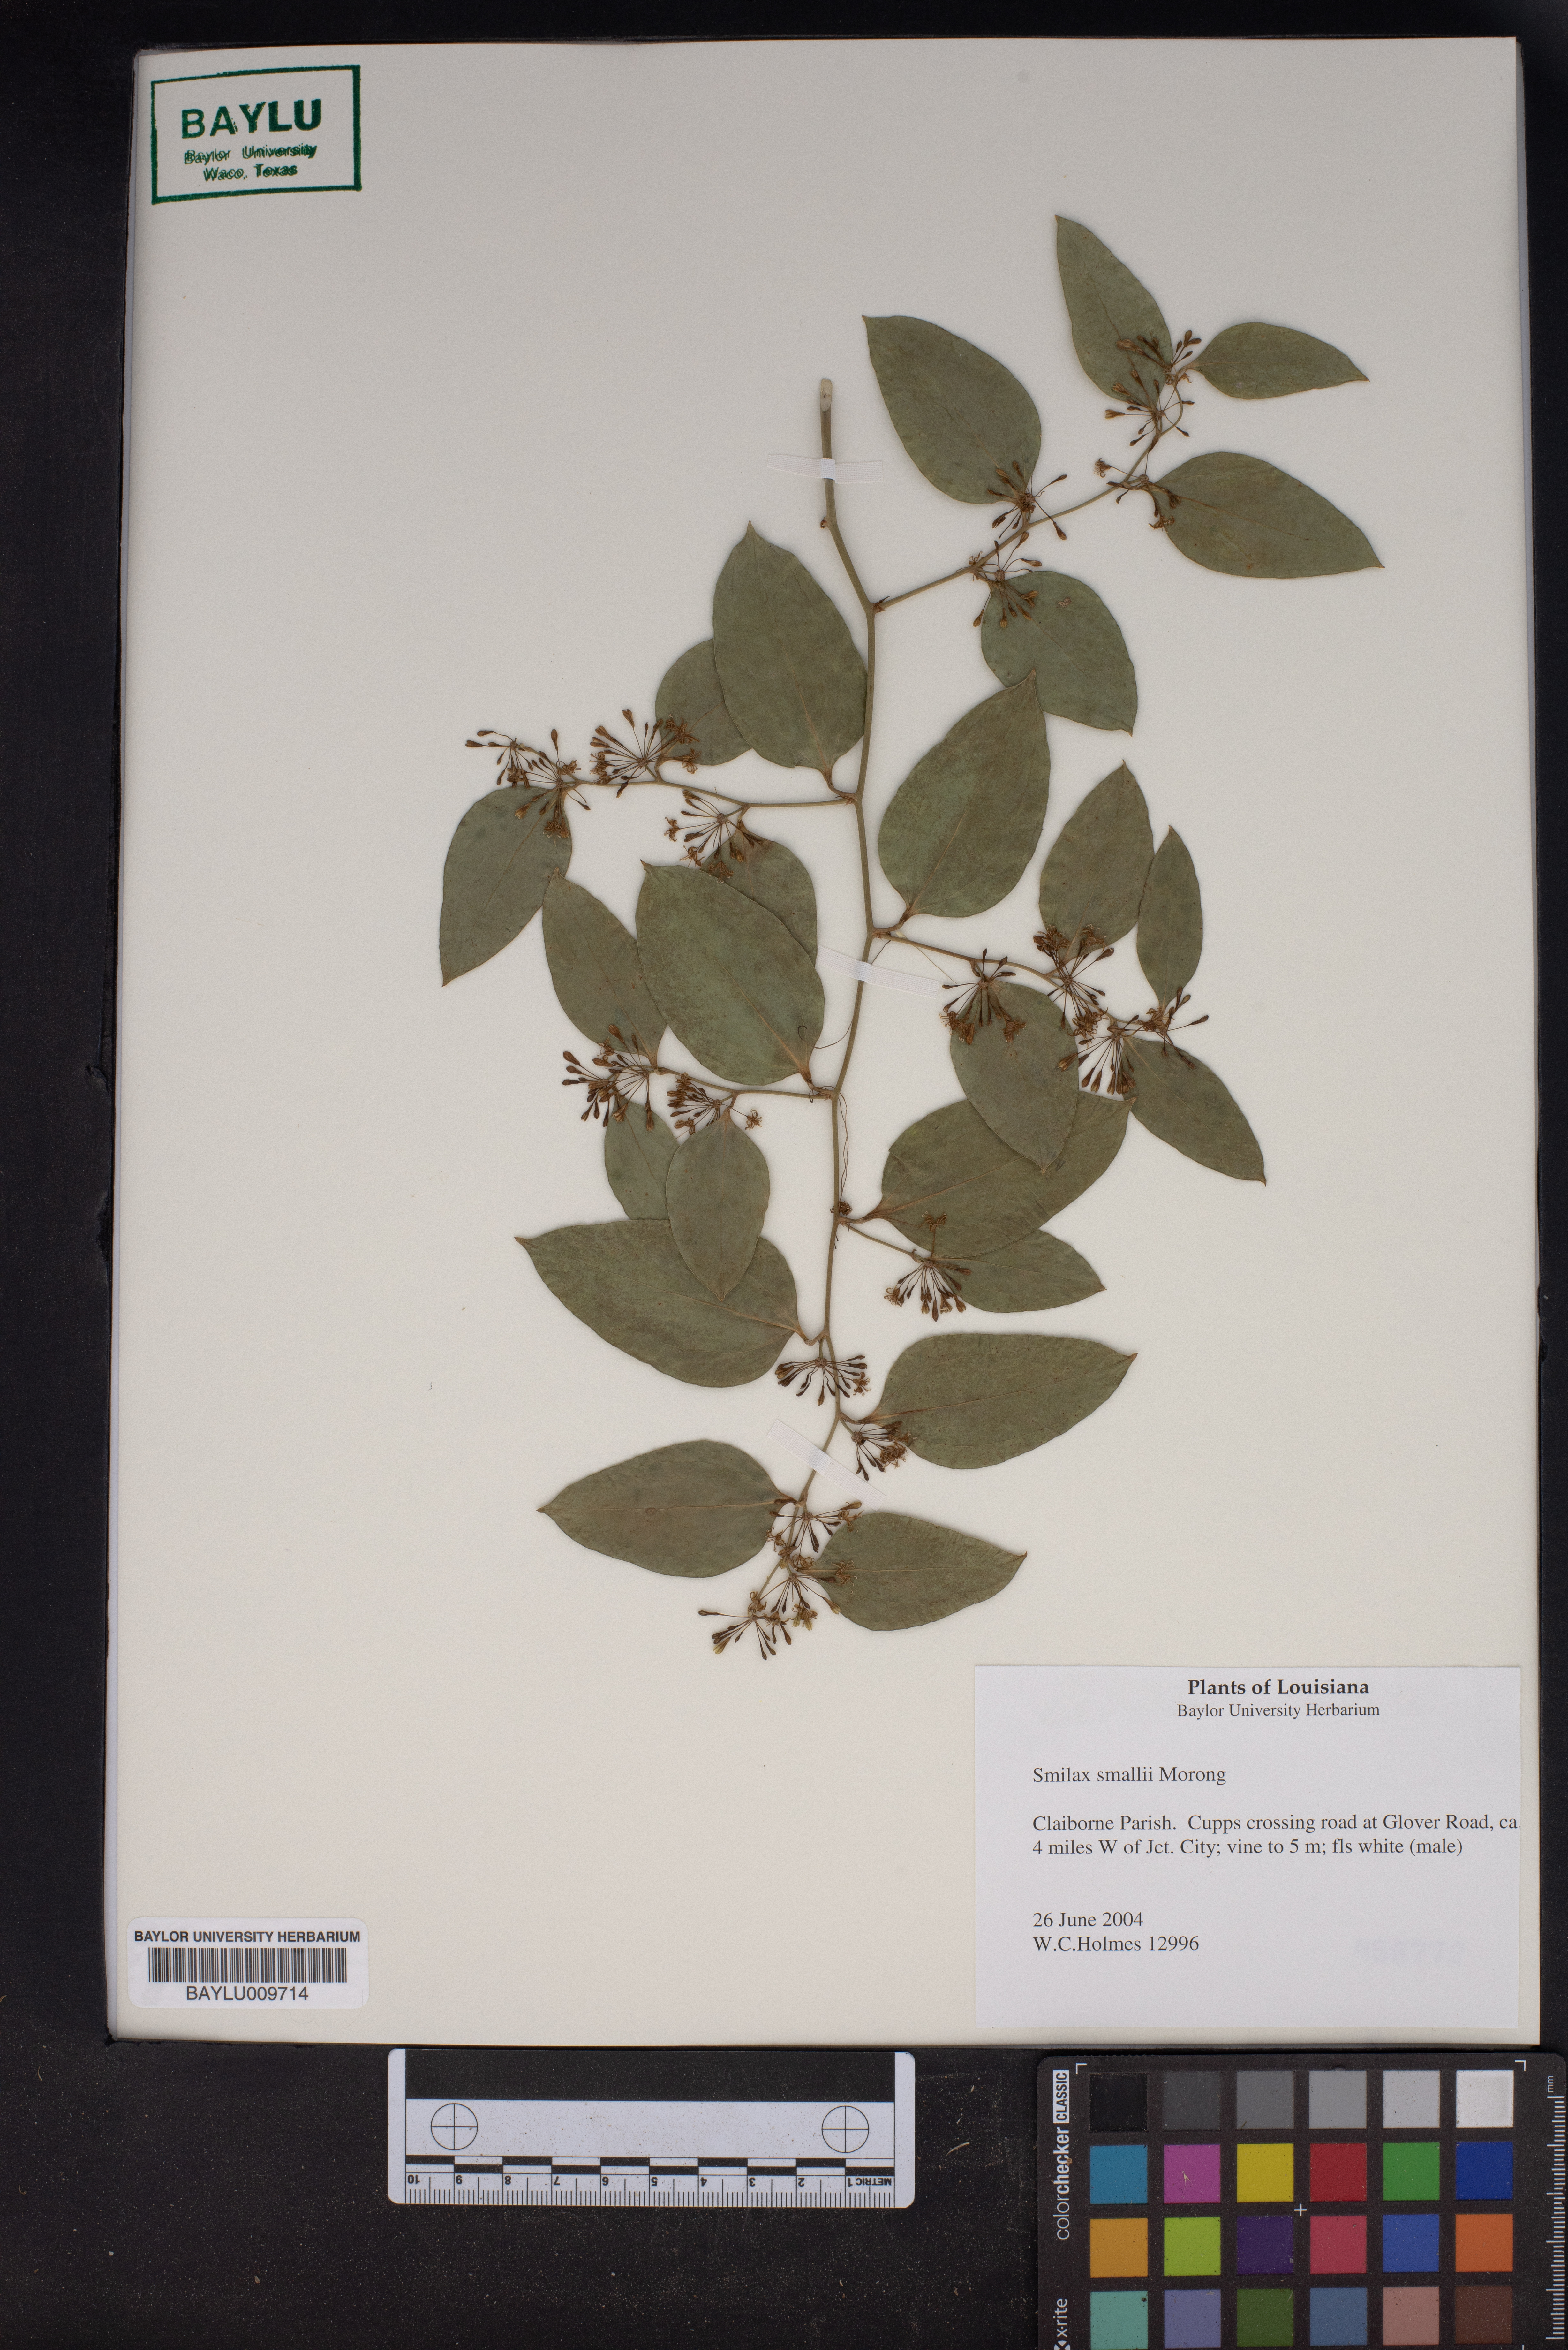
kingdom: Plantae
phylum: Tracheophyta
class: Liliopsida
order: Liliales
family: Smilacaceae
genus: Smilax
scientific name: Smilax maritima
